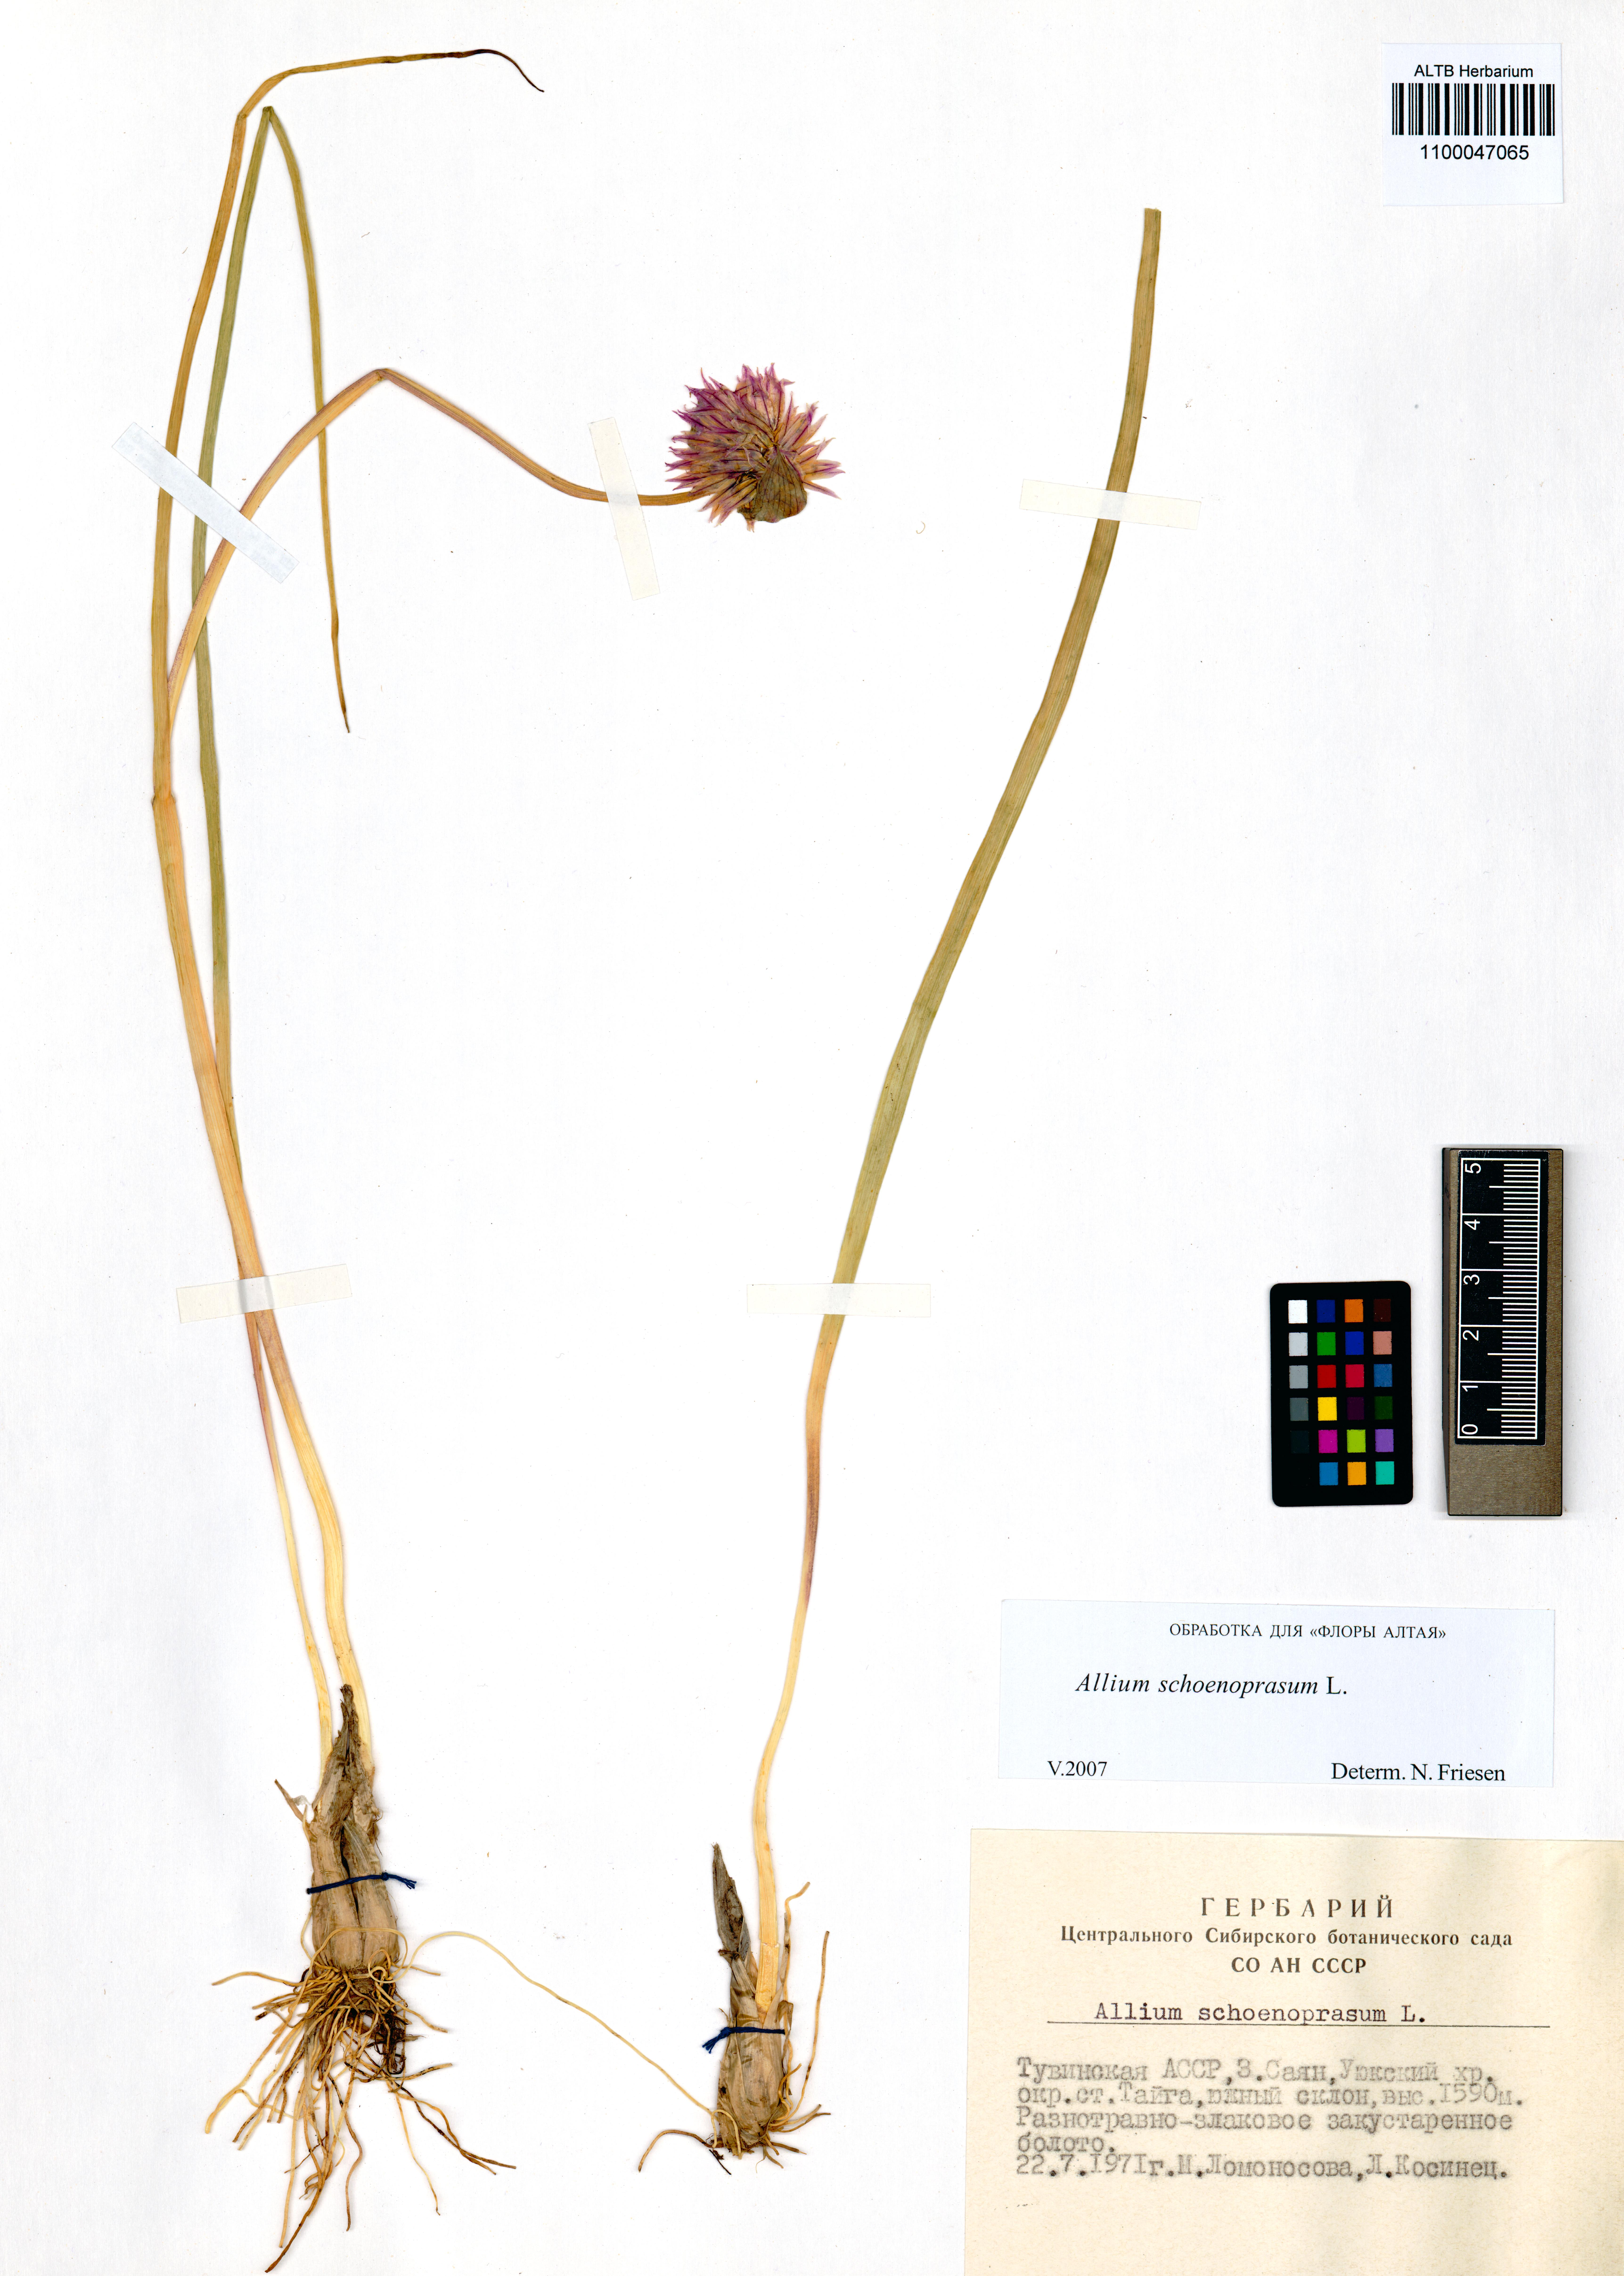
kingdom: Plantae
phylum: Tracheophyta
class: Liliopsida
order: Asparagales
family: Amaryllidaceae
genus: Allium
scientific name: Allium schoenoprasum
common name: Chives
